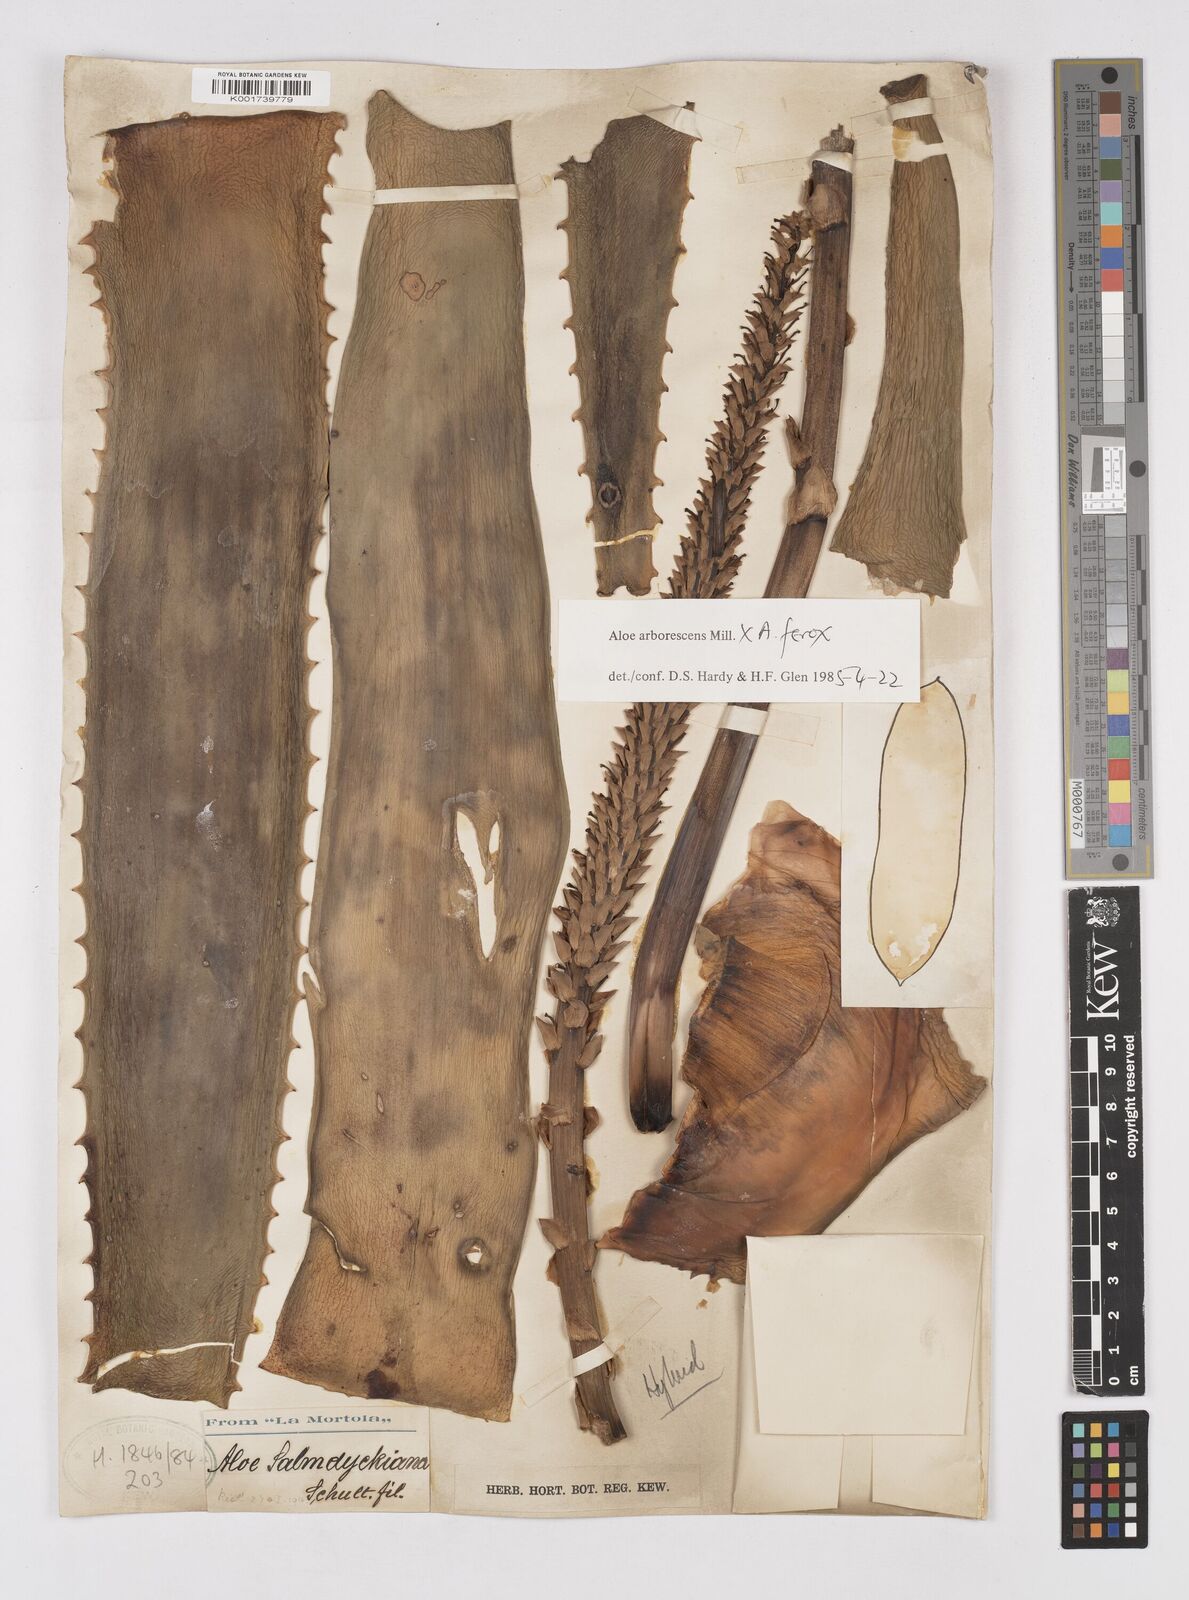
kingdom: Plantae
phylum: Tracheophyta
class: Liliopsida
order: Asparagales
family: Asphodelaceae
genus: Aloe
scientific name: Aloe arborescens
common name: Candelabra aloe
